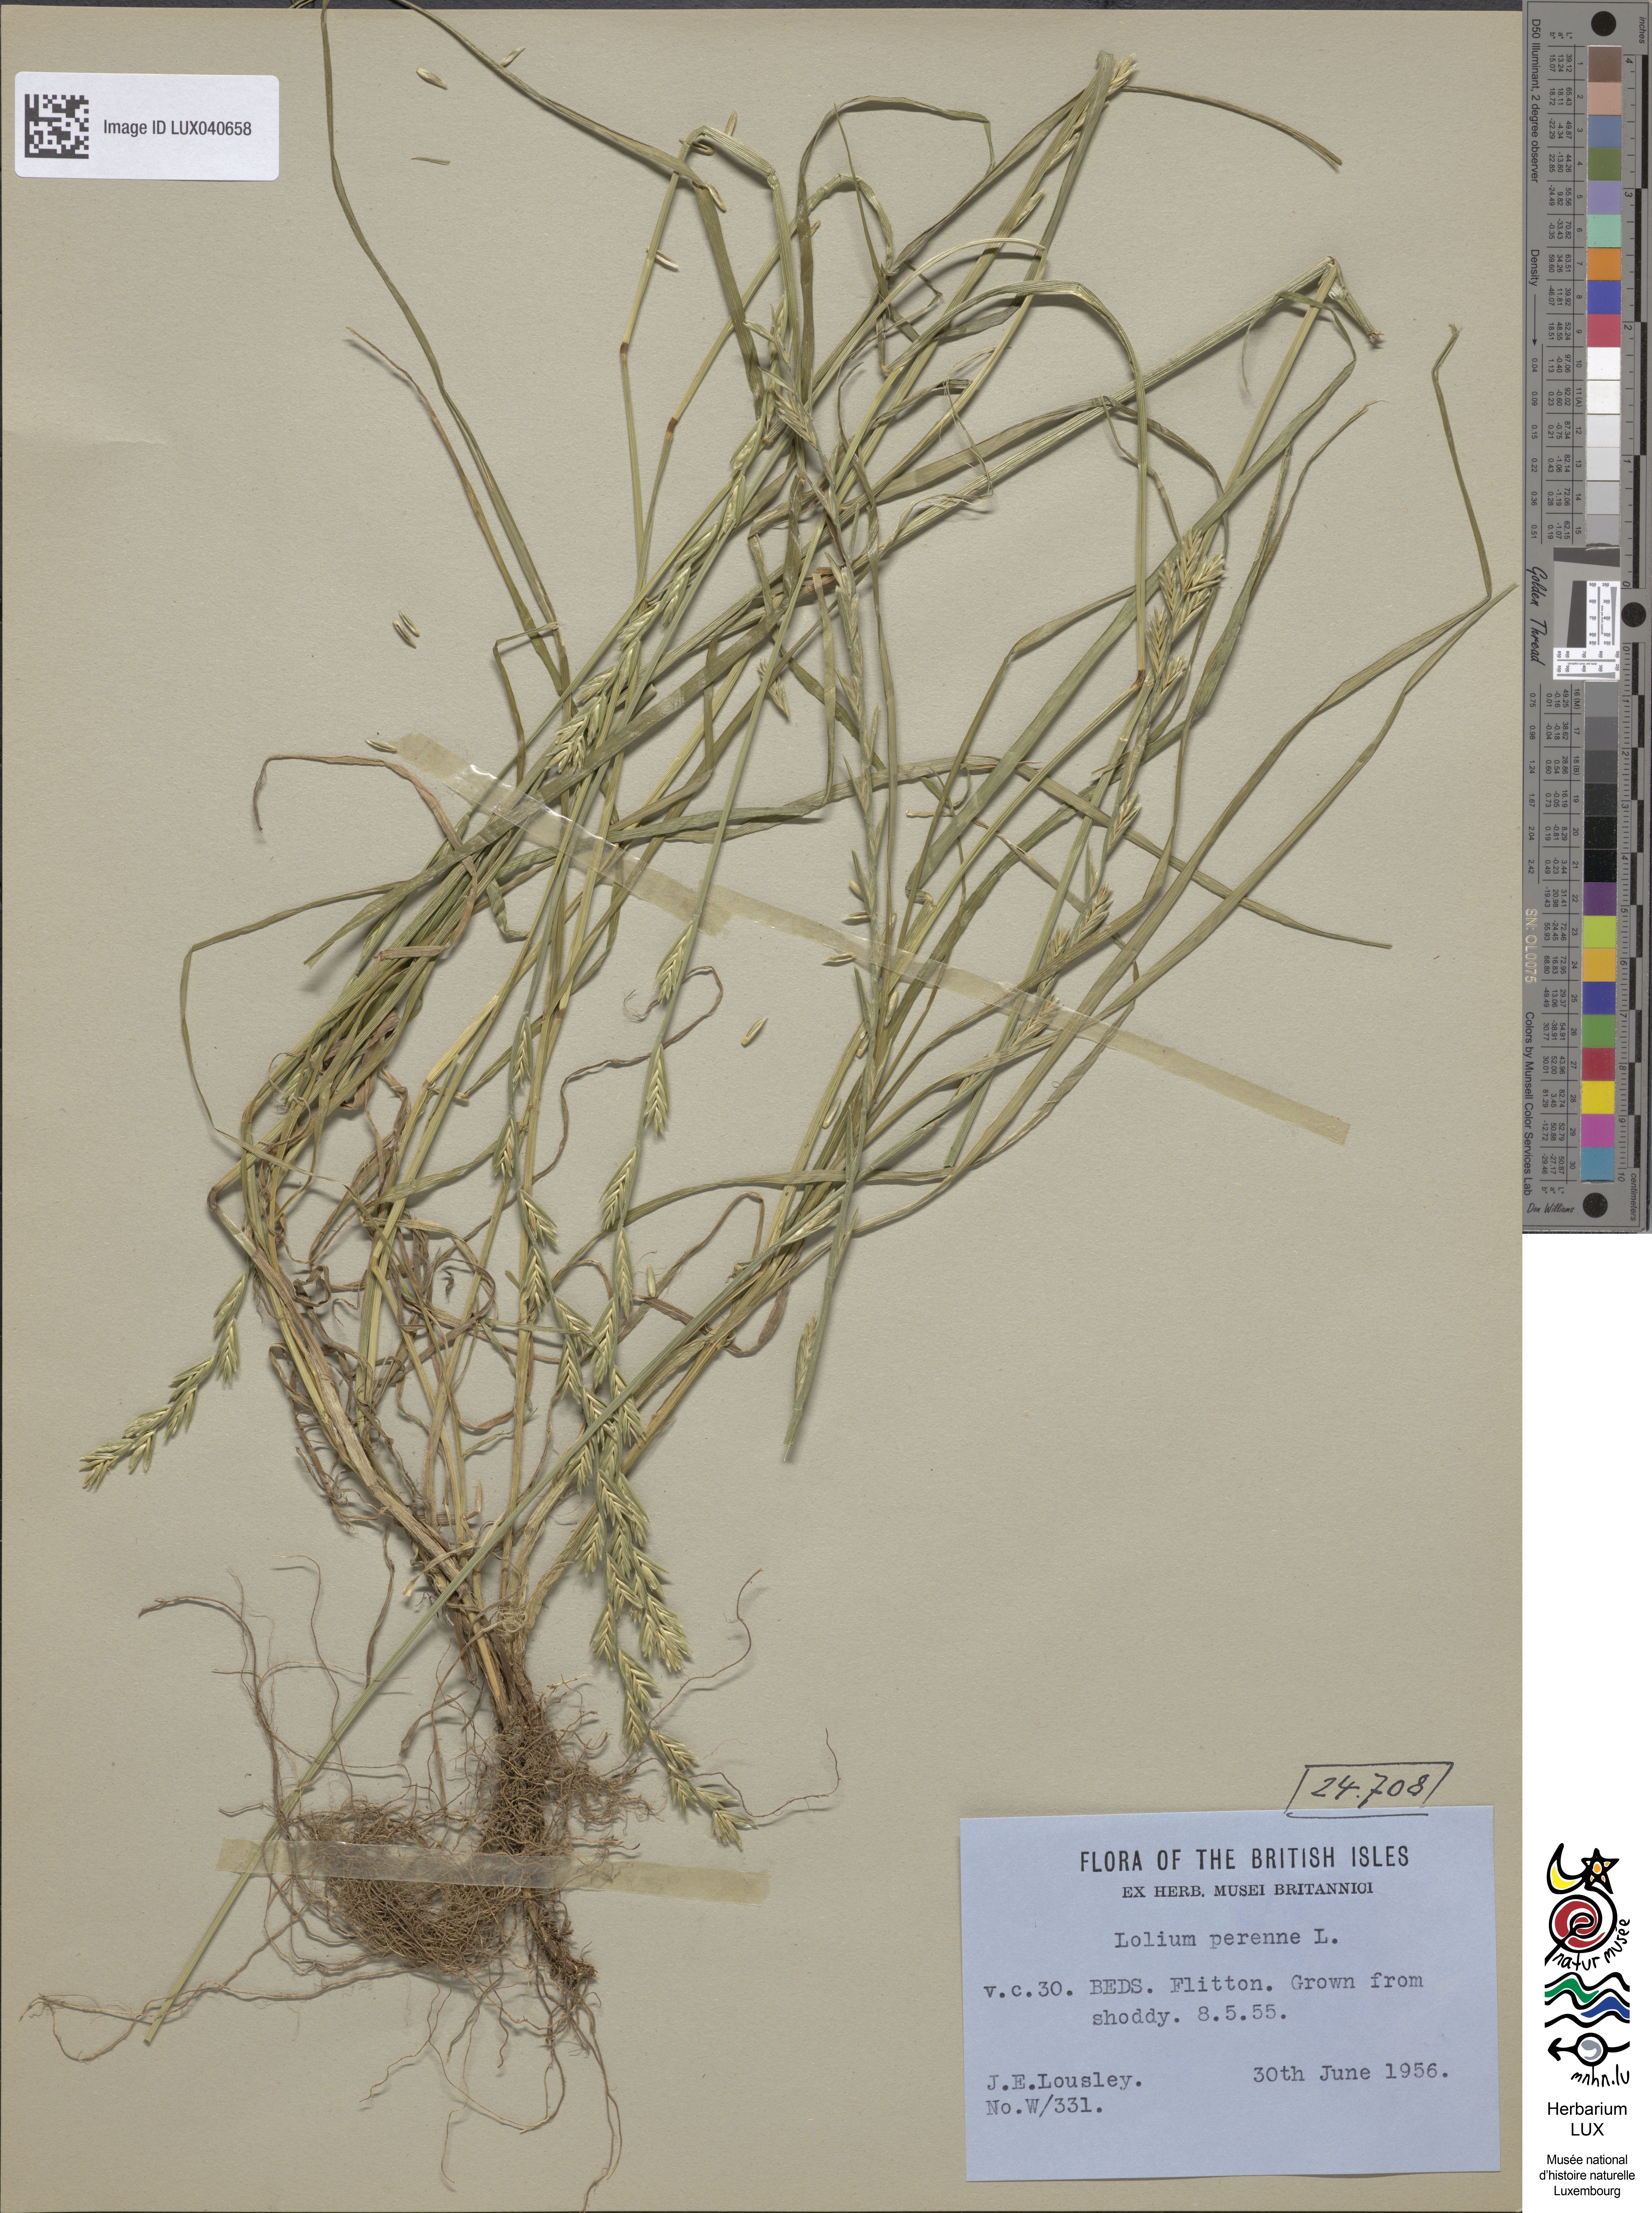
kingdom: Plantae
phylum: Tracheophyta
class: Liliopsida
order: Poales
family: Poaceae
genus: Lolium
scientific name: Lolium perenne
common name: Perennial ryegrass
